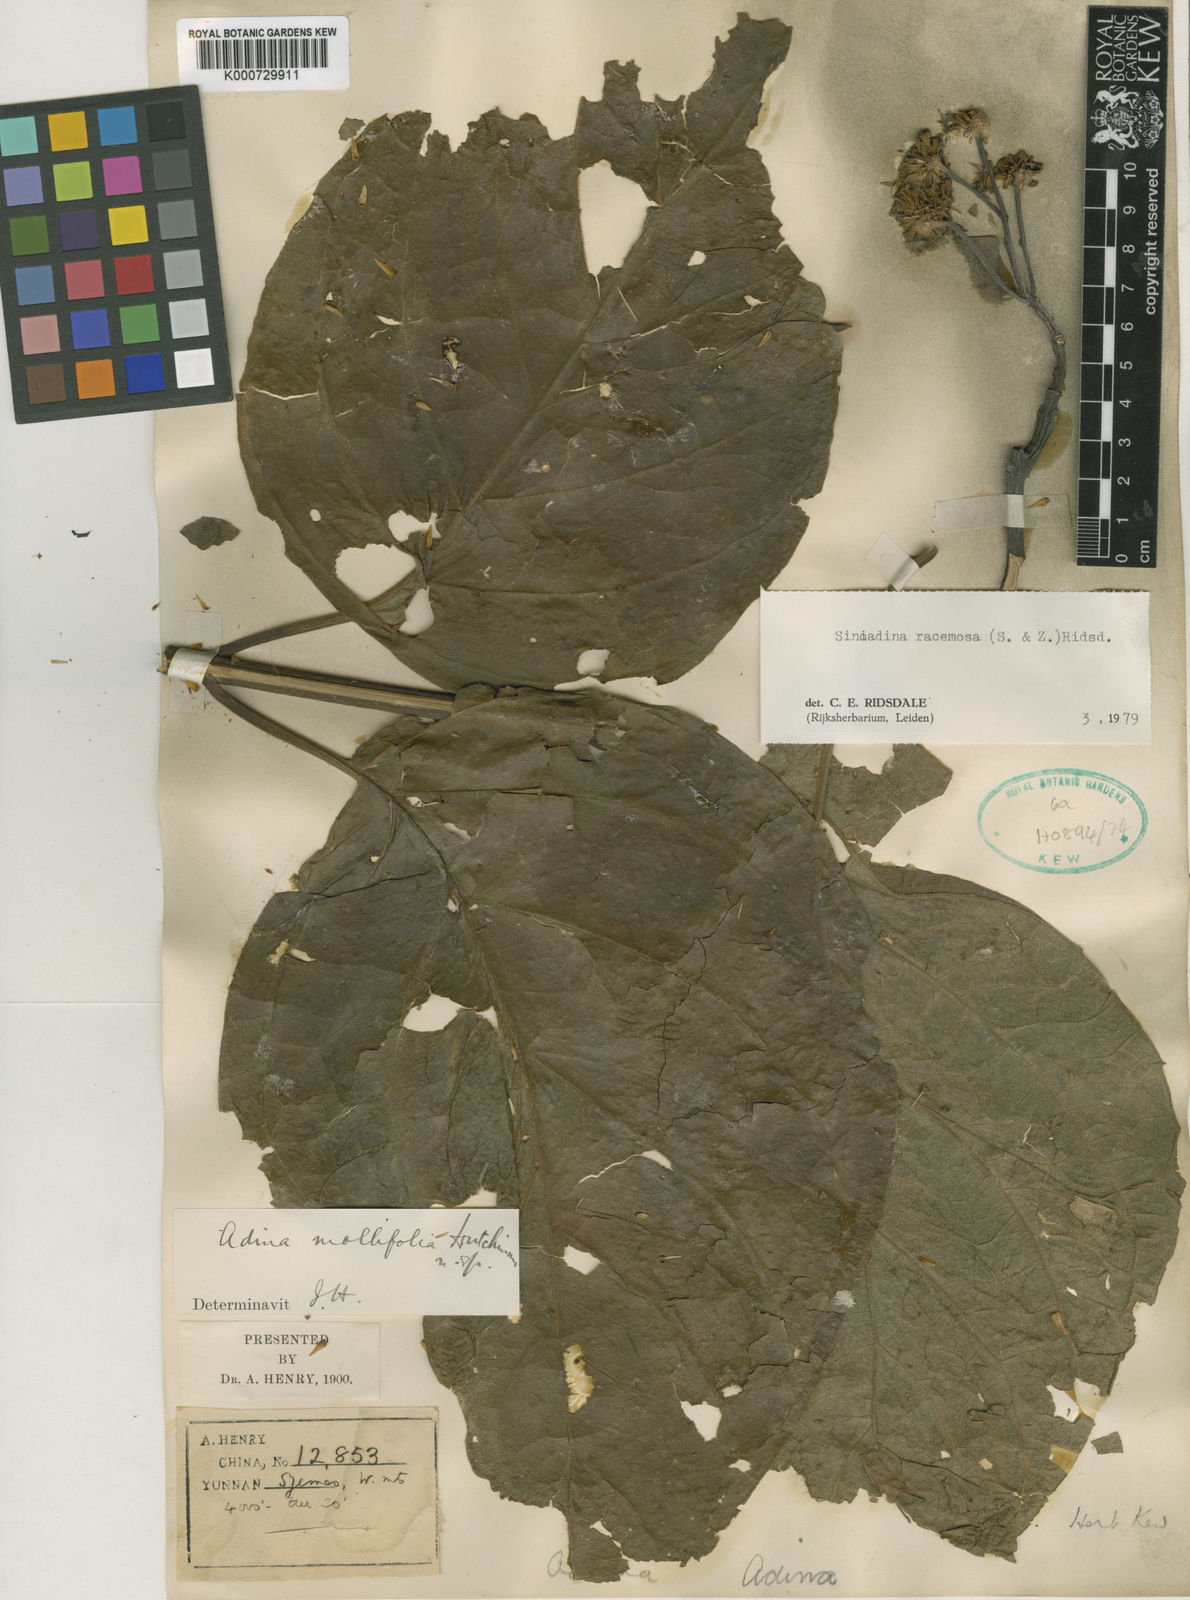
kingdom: Plantae
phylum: Tracheophyta
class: Magnoliopsida
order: Gentianales
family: Rubiaceae
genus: Adina
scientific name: Adina racemosa
